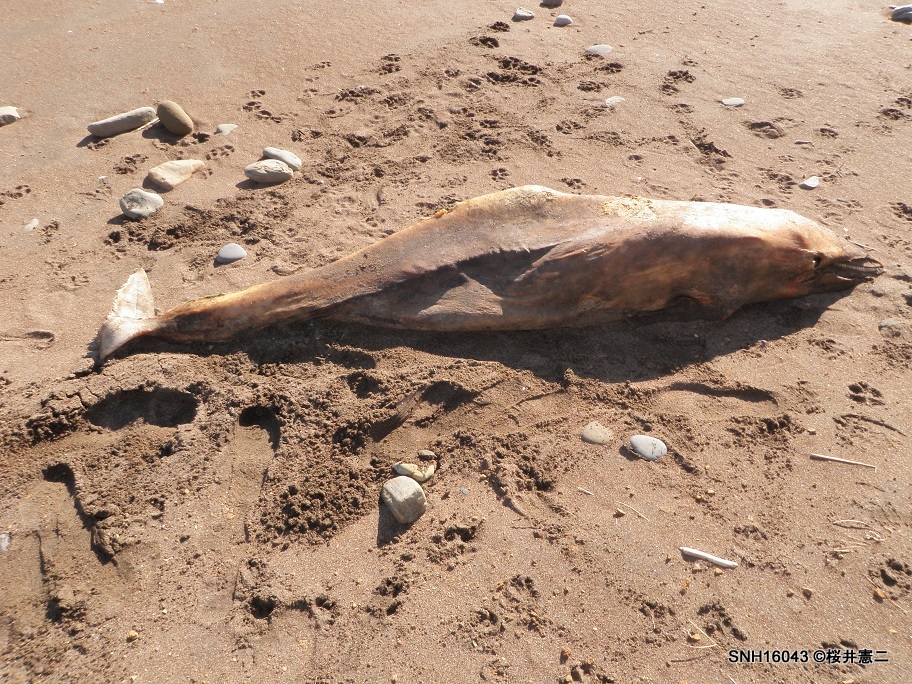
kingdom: Animalia
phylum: Chordata
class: Mammalia
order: Cetacea
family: Delphinidae
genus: Lagenorhynchus
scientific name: Lagenorhynchus obliquidens
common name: Pacific white-sided dolphin
